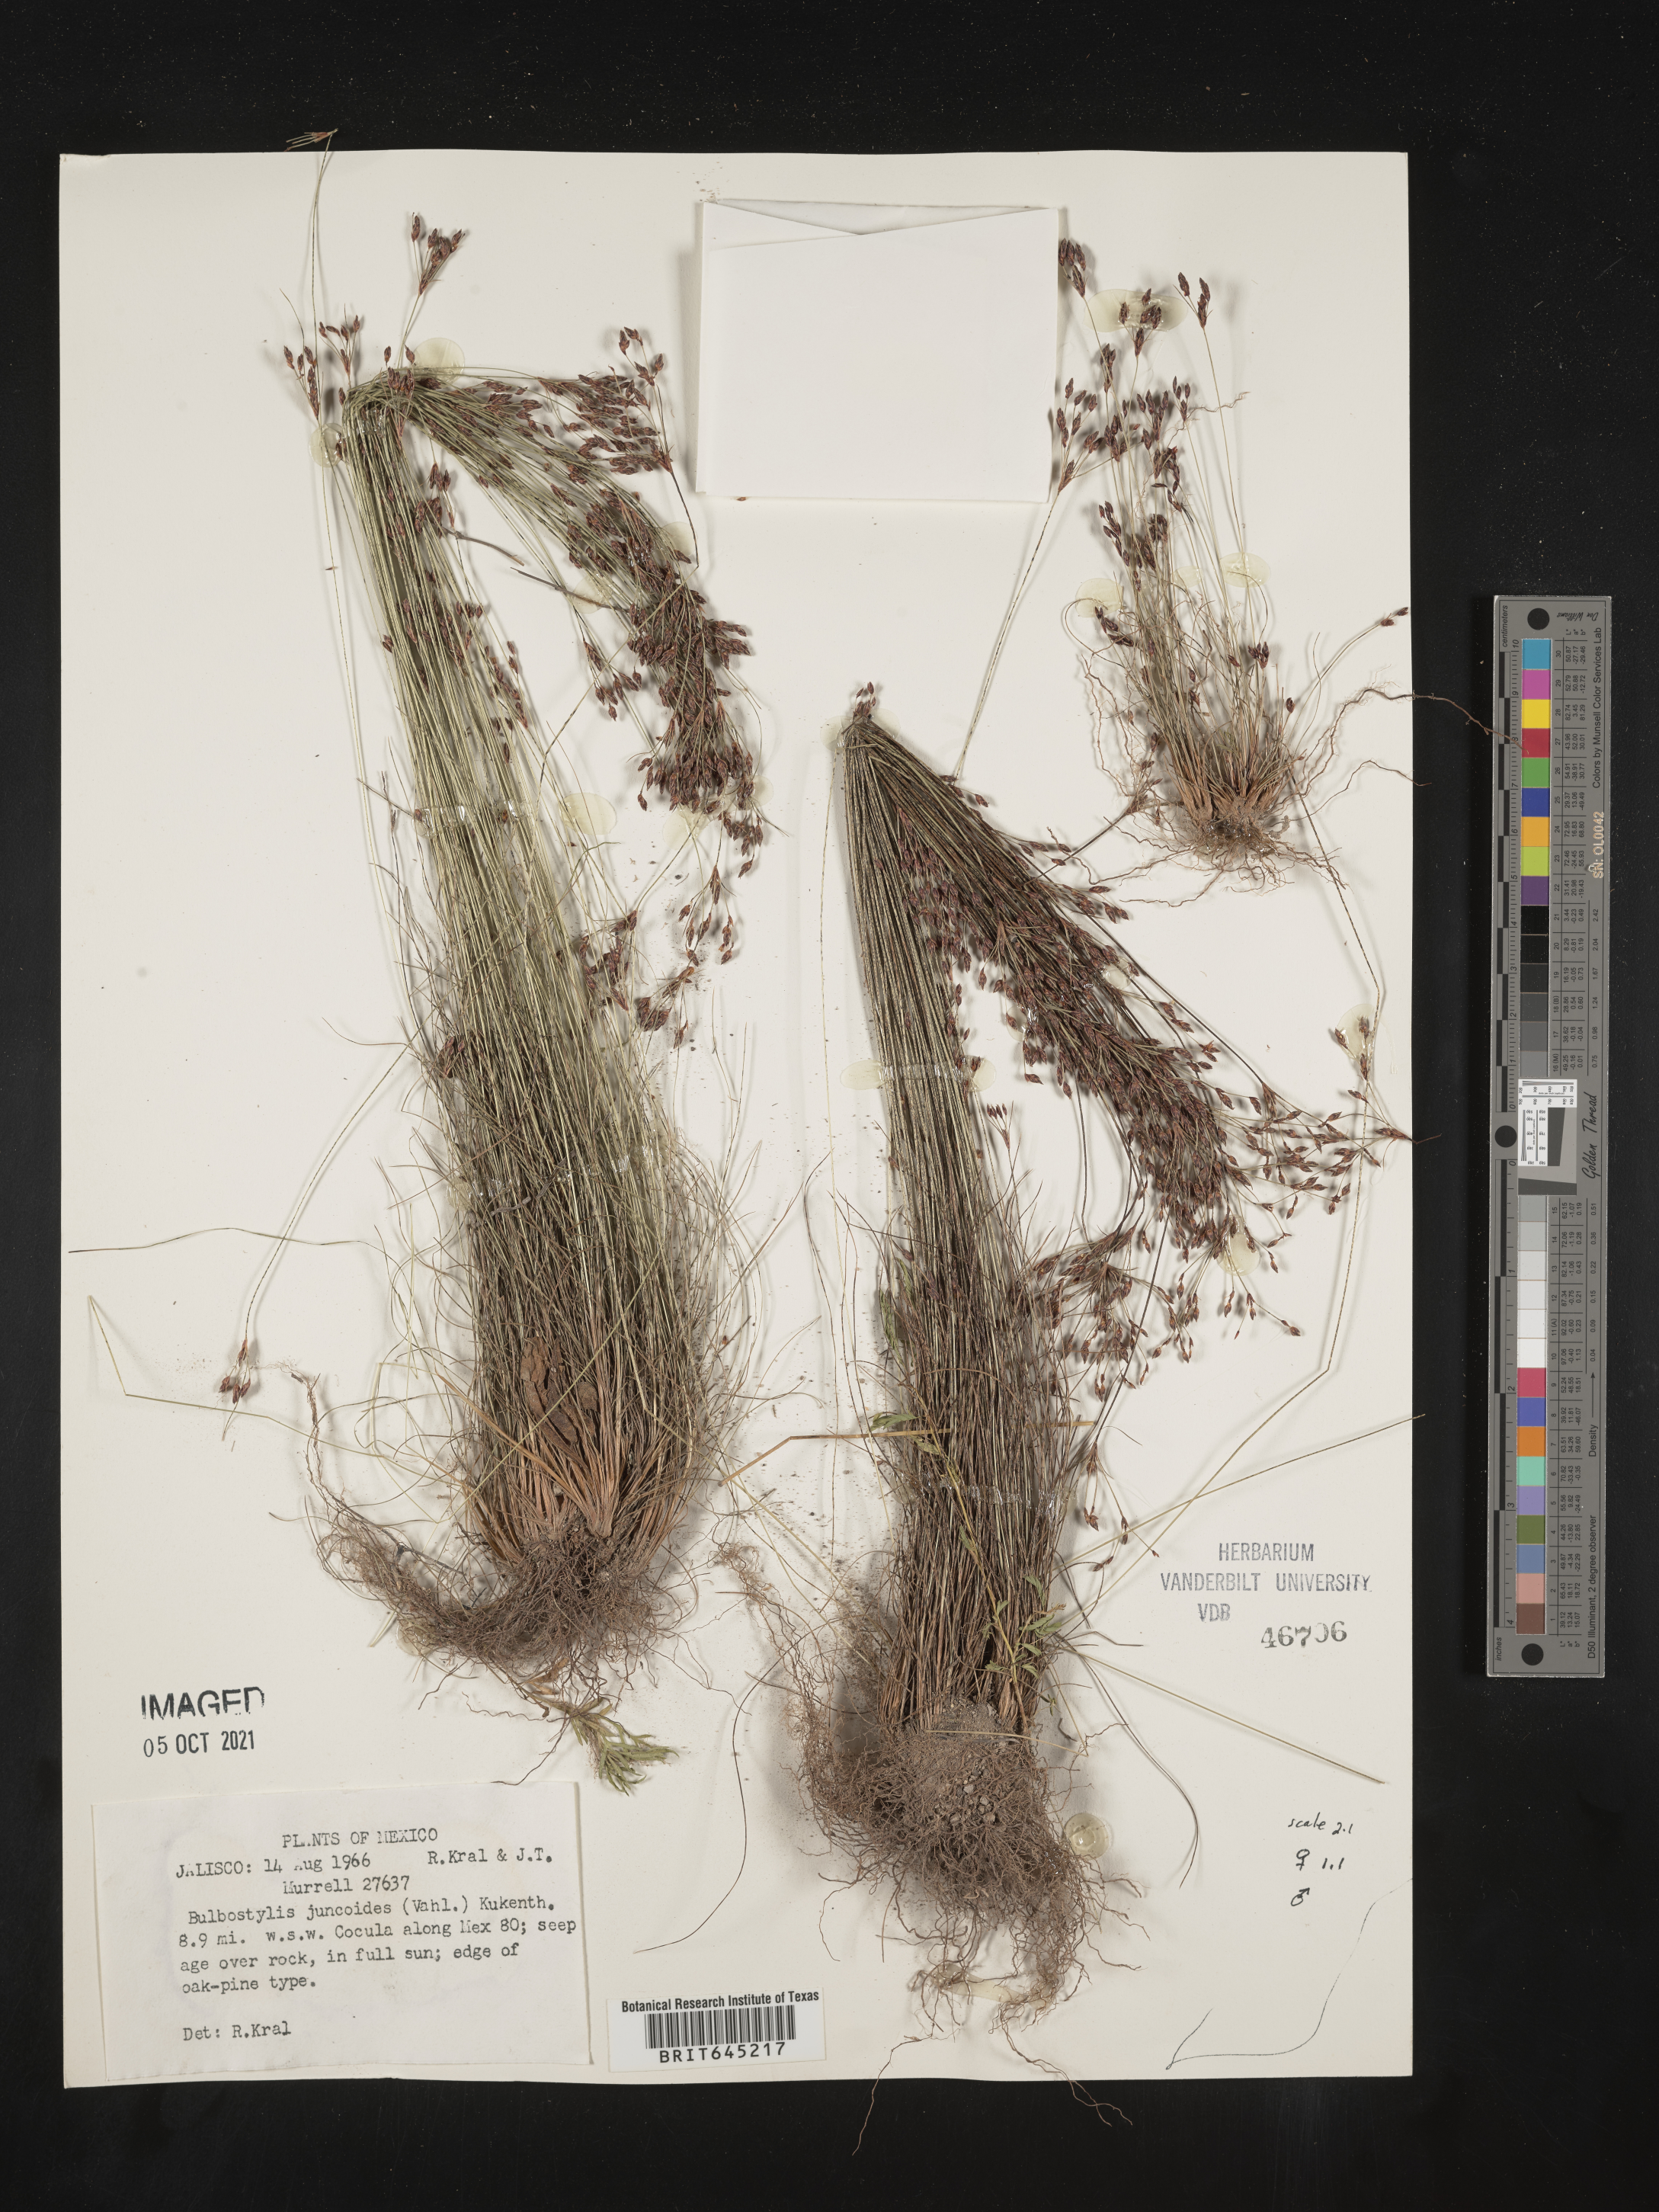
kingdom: Plantae
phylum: Tracheophyta
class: Liliopsida
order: Poales
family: Cyperaceae
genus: Bulbostylis
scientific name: Bulbostylis juncoides
